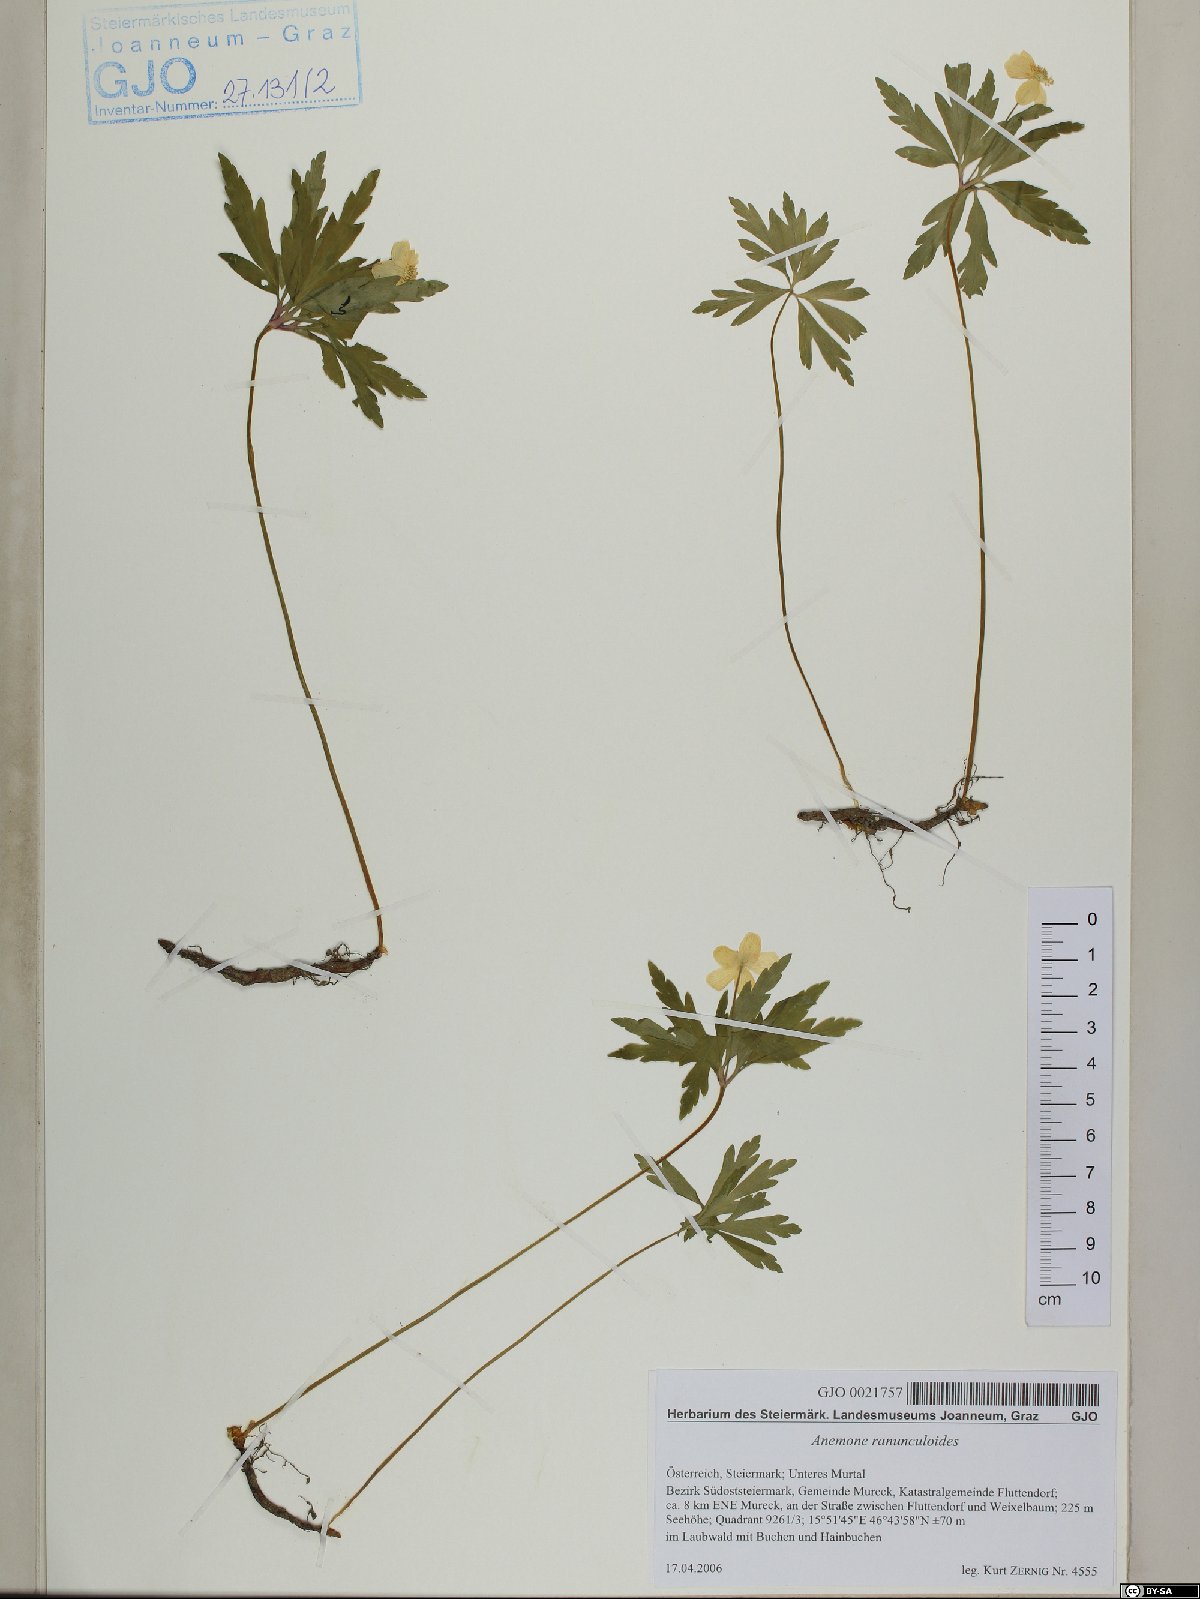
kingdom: Plantae
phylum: Tracheophyta
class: Magnoliopsida
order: Ranunculales
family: Ranunculaceae
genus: Anemone
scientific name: Anemone ranunculoides
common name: Yellow anemone
